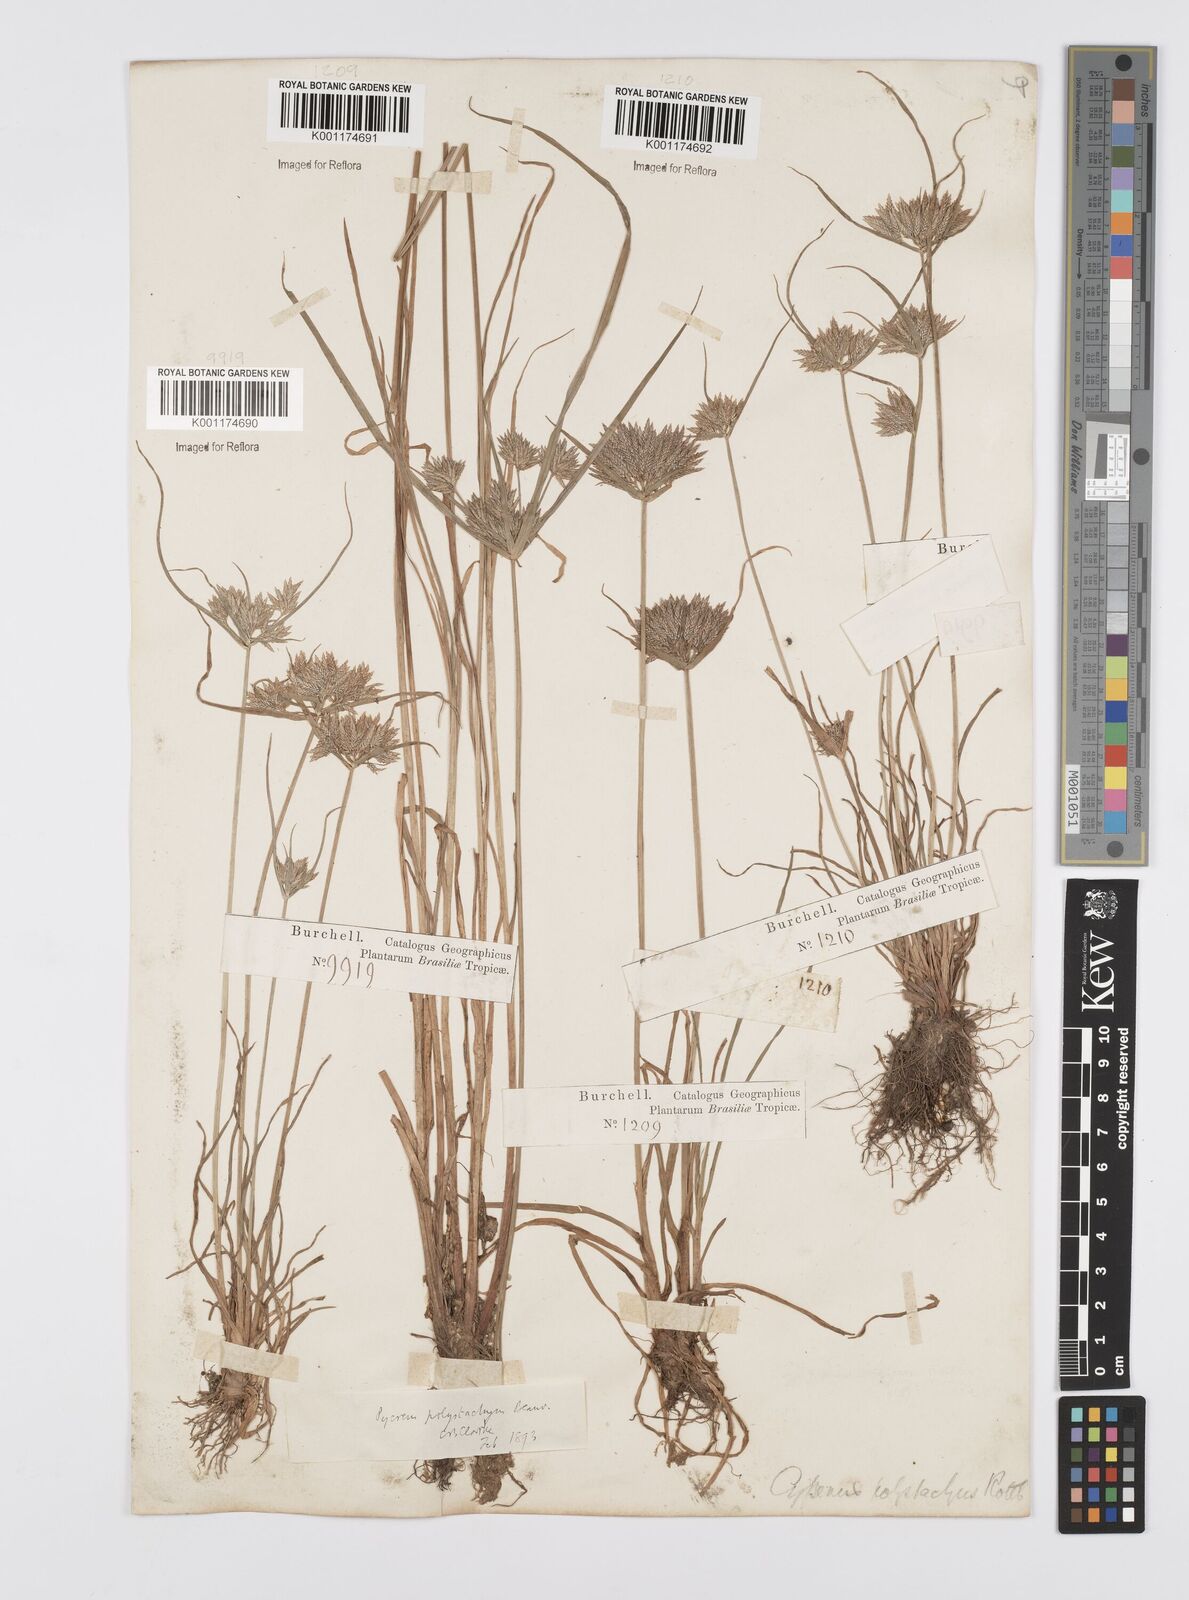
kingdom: Plantae
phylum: Tracheophyta
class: Liliopsida
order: Poales
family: Cyperaceae
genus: Cyperus
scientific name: Cyperus polystachyos
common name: Bunchy flat sedge
